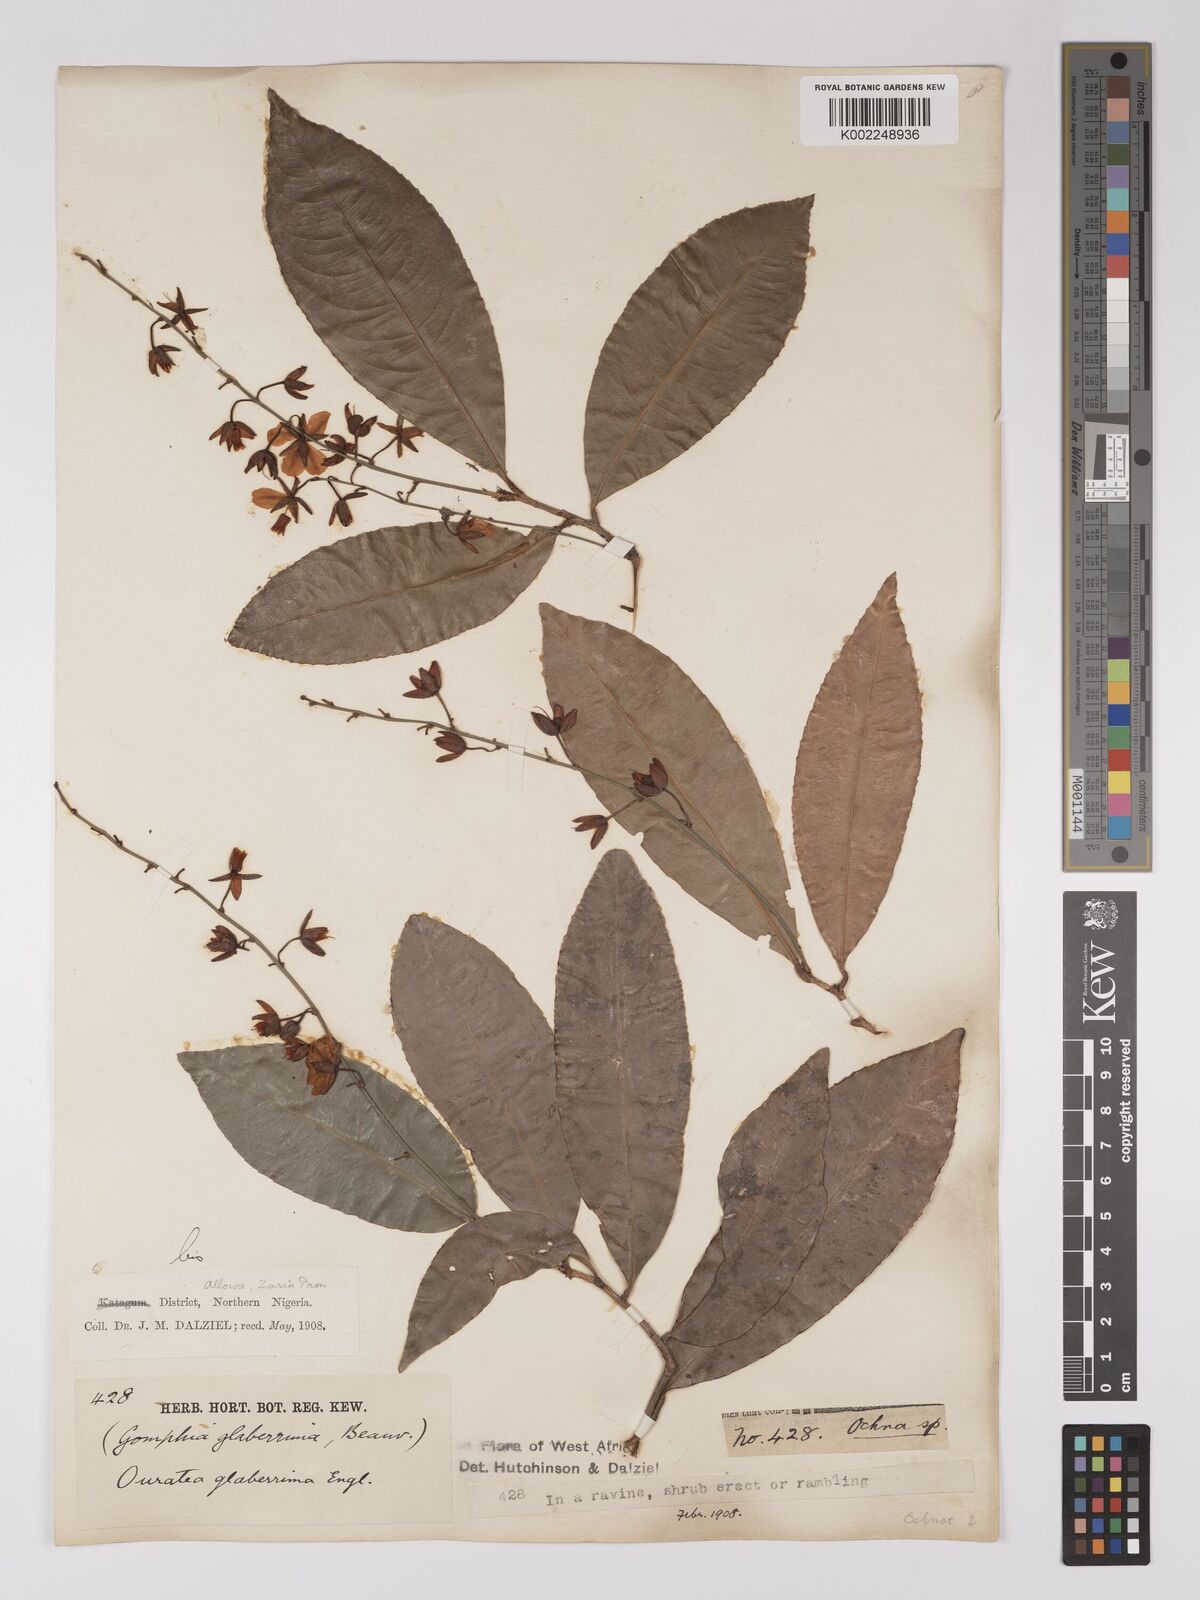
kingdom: Plantae
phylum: Tracheophyta
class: Magnoliopsida
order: Malpighiales
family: Ochnaceae
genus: Campylospermum
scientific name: Campylospermum glaberrimum
